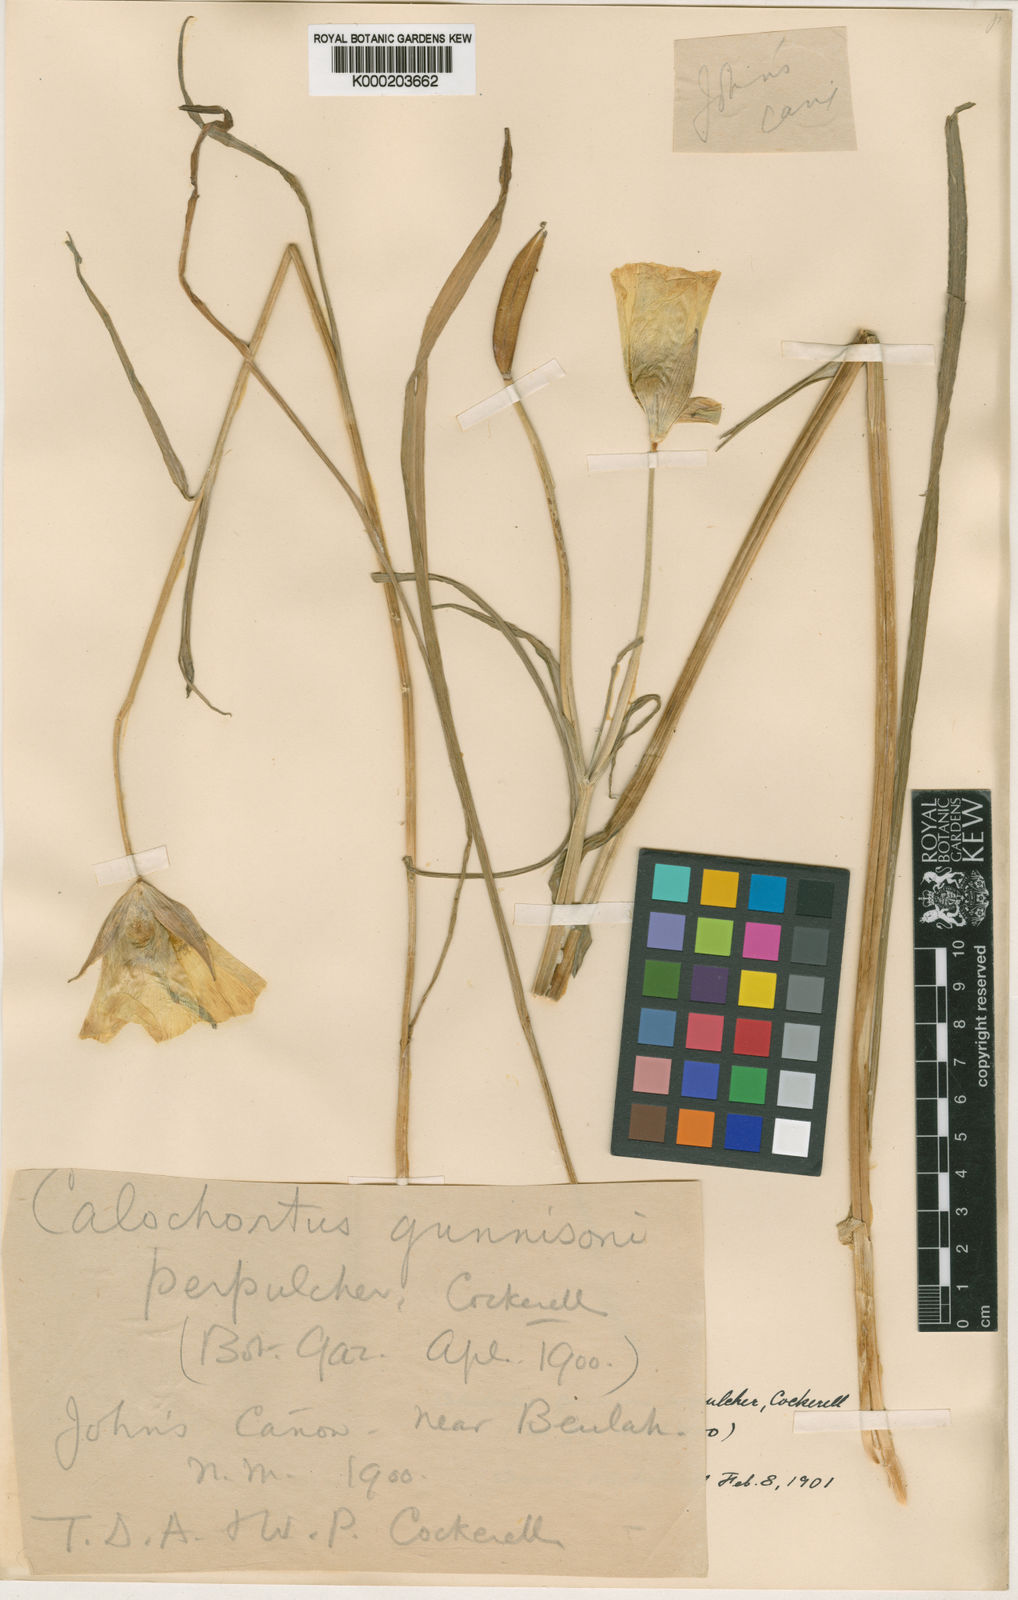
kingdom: Plantae
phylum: Tracheophyta
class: Liliopsida
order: Liliales
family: Liliaceae
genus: Calochortus
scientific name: Calochortus gunnisonii
